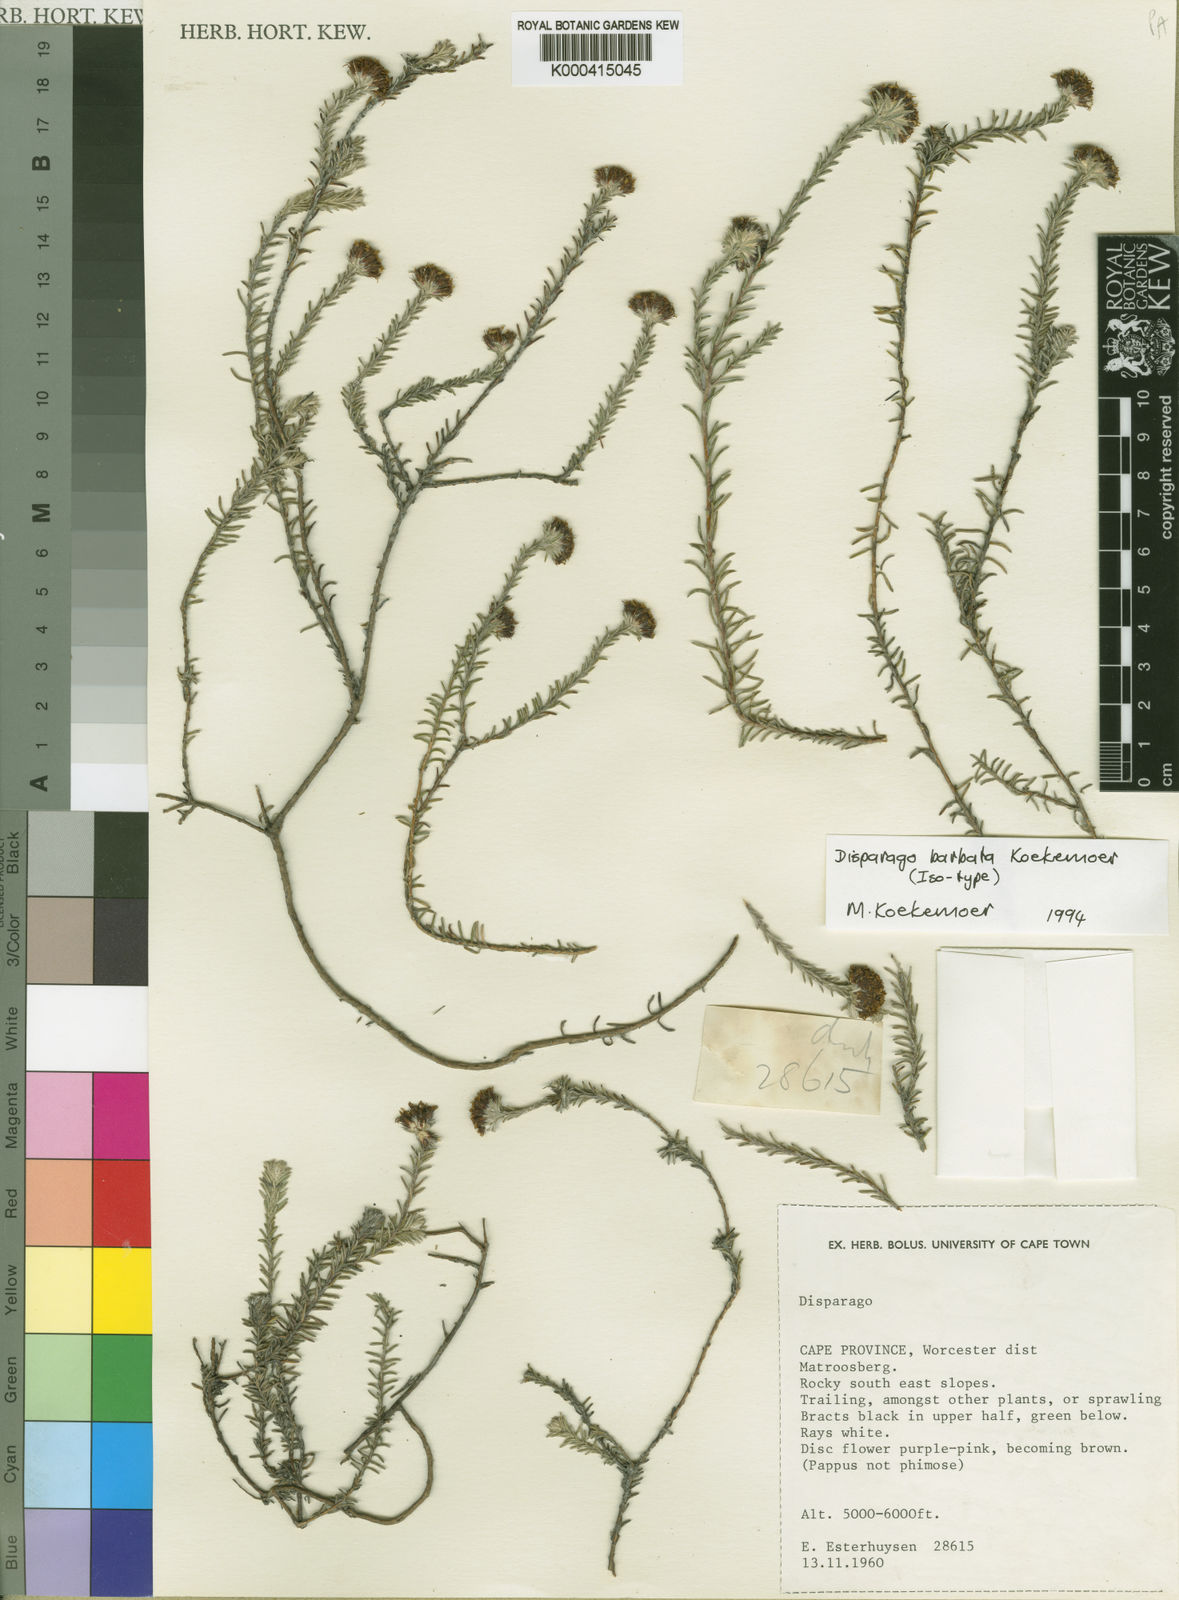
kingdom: Plantae
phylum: Tracheophyta
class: Magnoliopsida
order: Asterales
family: Asteraceae
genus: Disparago
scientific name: Disparago barbata
